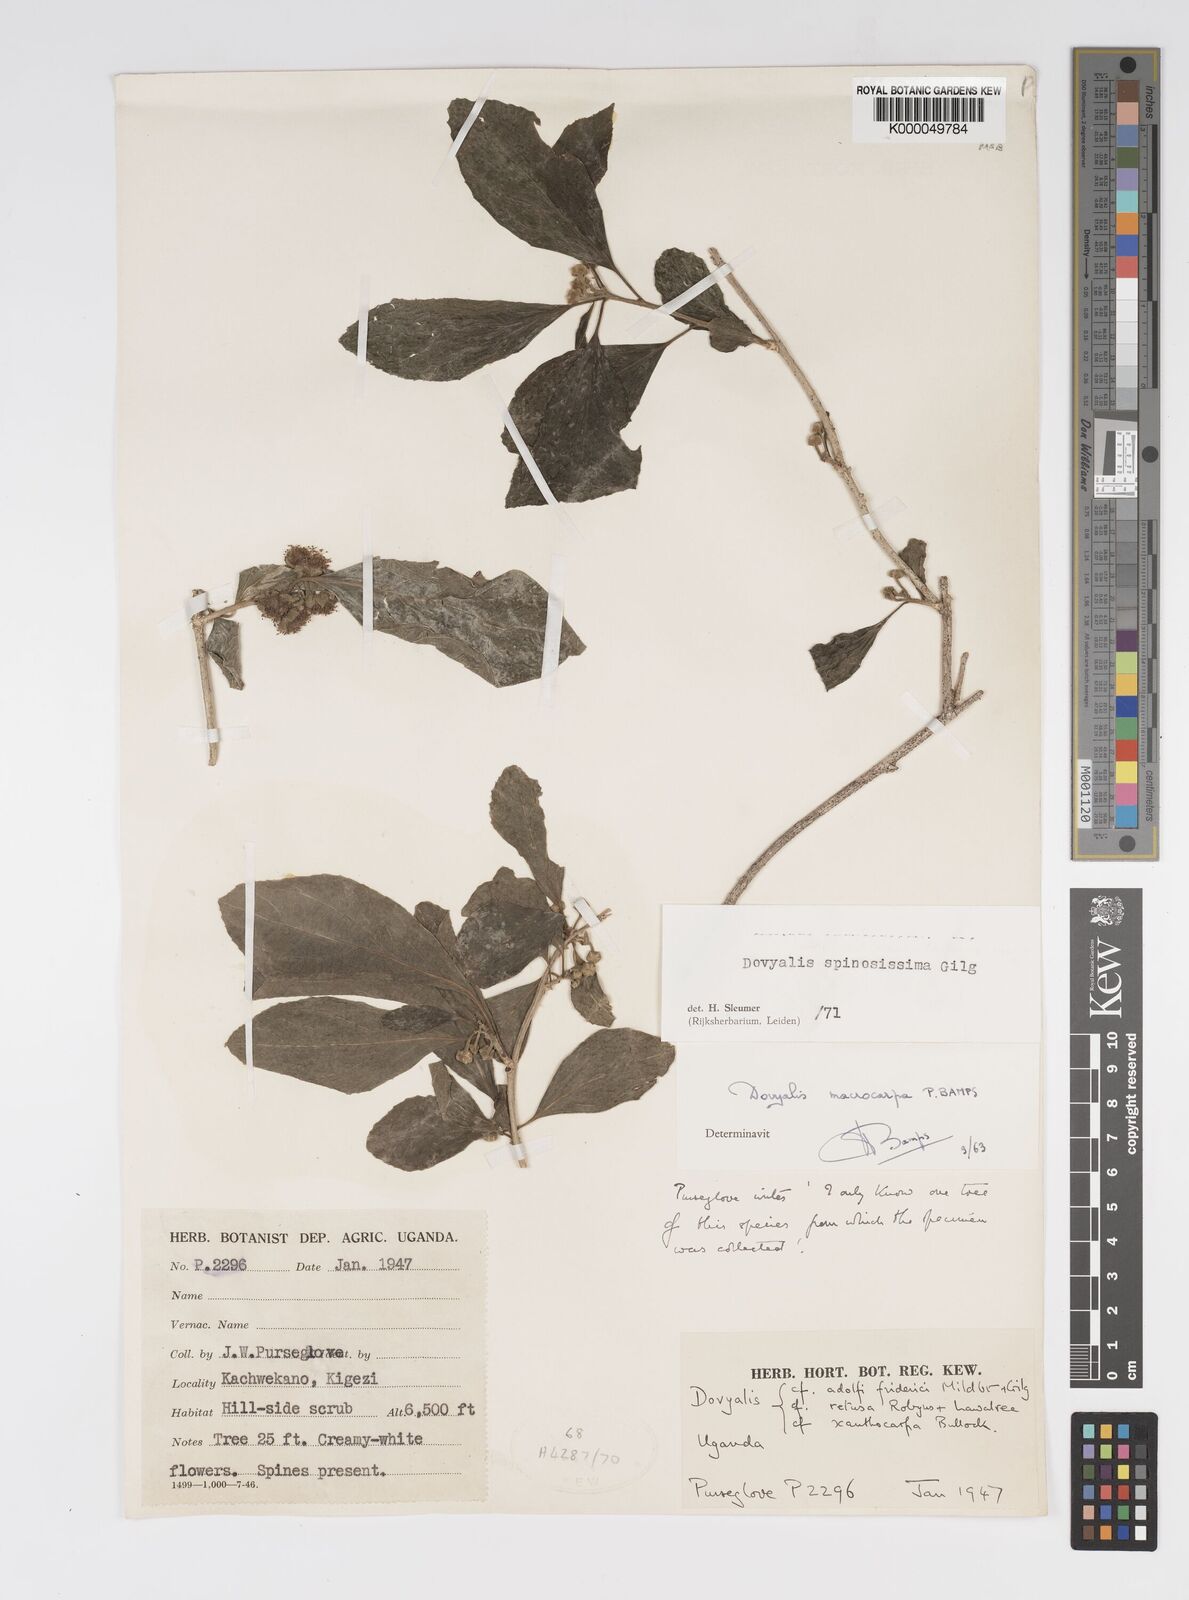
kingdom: Plantae
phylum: Tracheophyta
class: Magnoliopsida
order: Malpighiales
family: Salicaceae
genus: Dovyalis
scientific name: Dovyalis spinosissima
